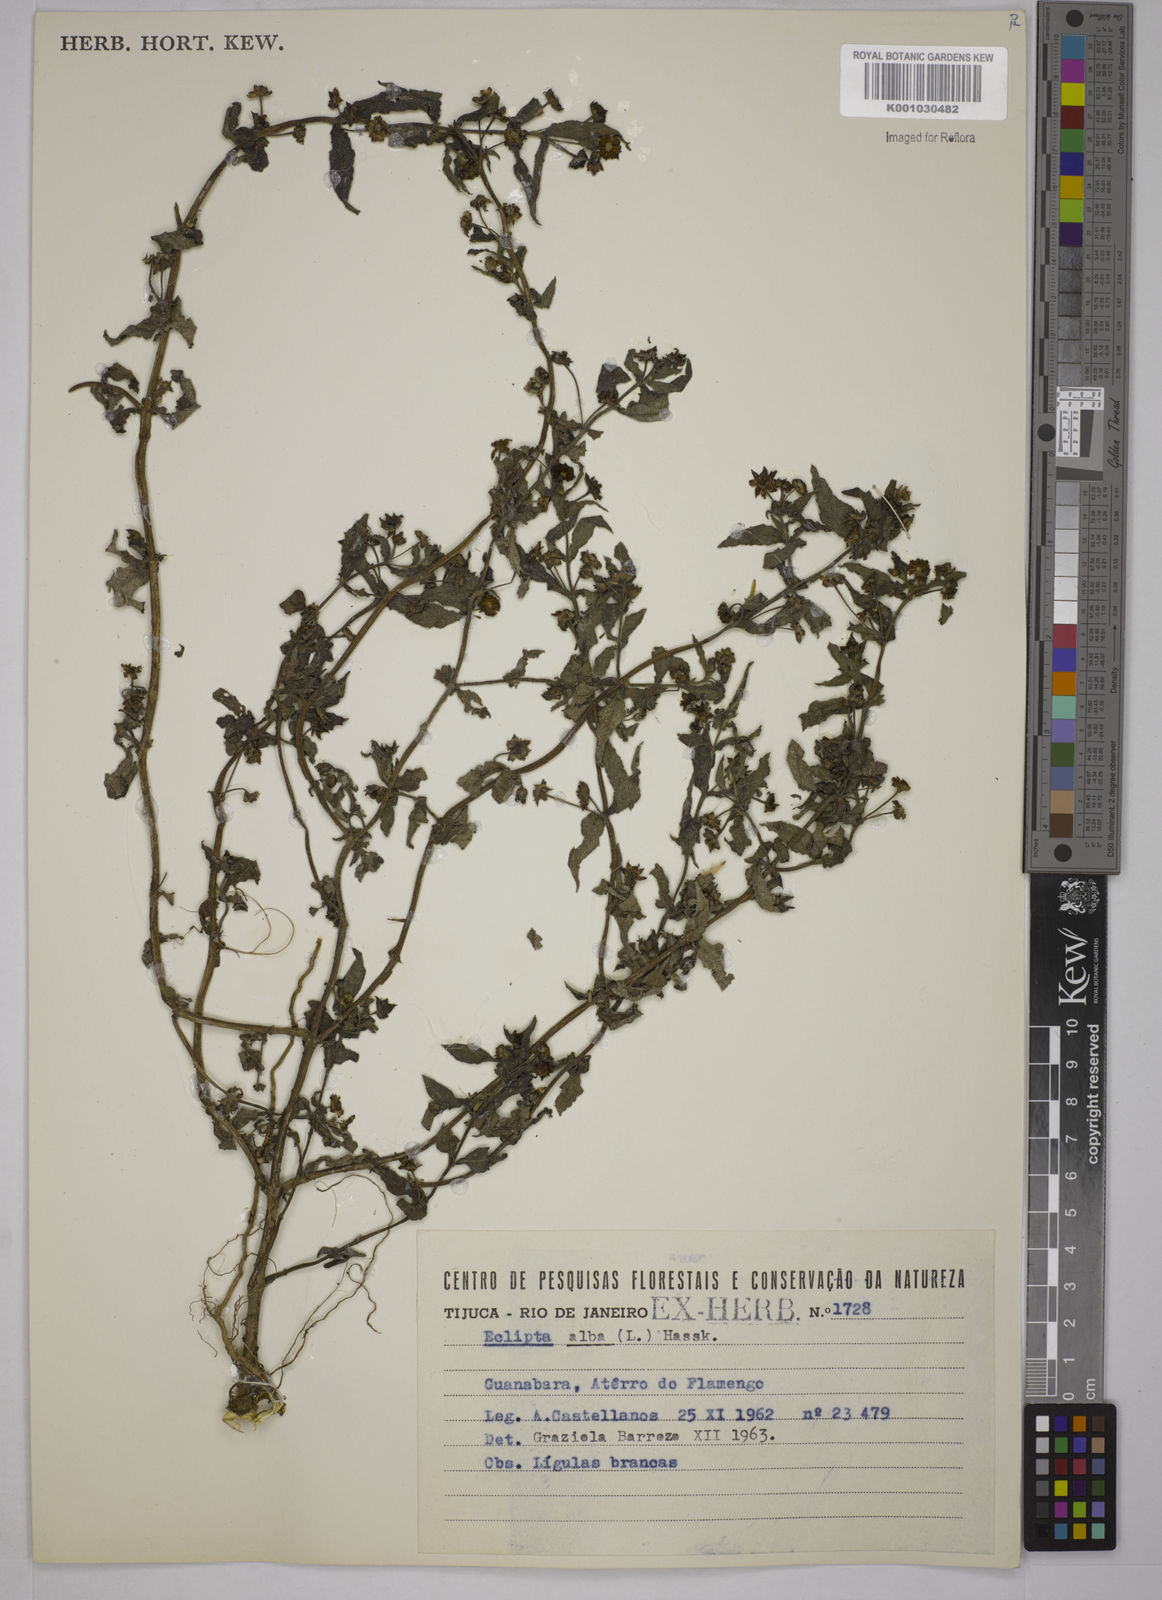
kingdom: Plantae
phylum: Tracheophyta
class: Magnoliopsida
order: Asterales
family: Asteraceae
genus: Eclipta
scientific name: Eclipta prostrata
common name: False daisy
